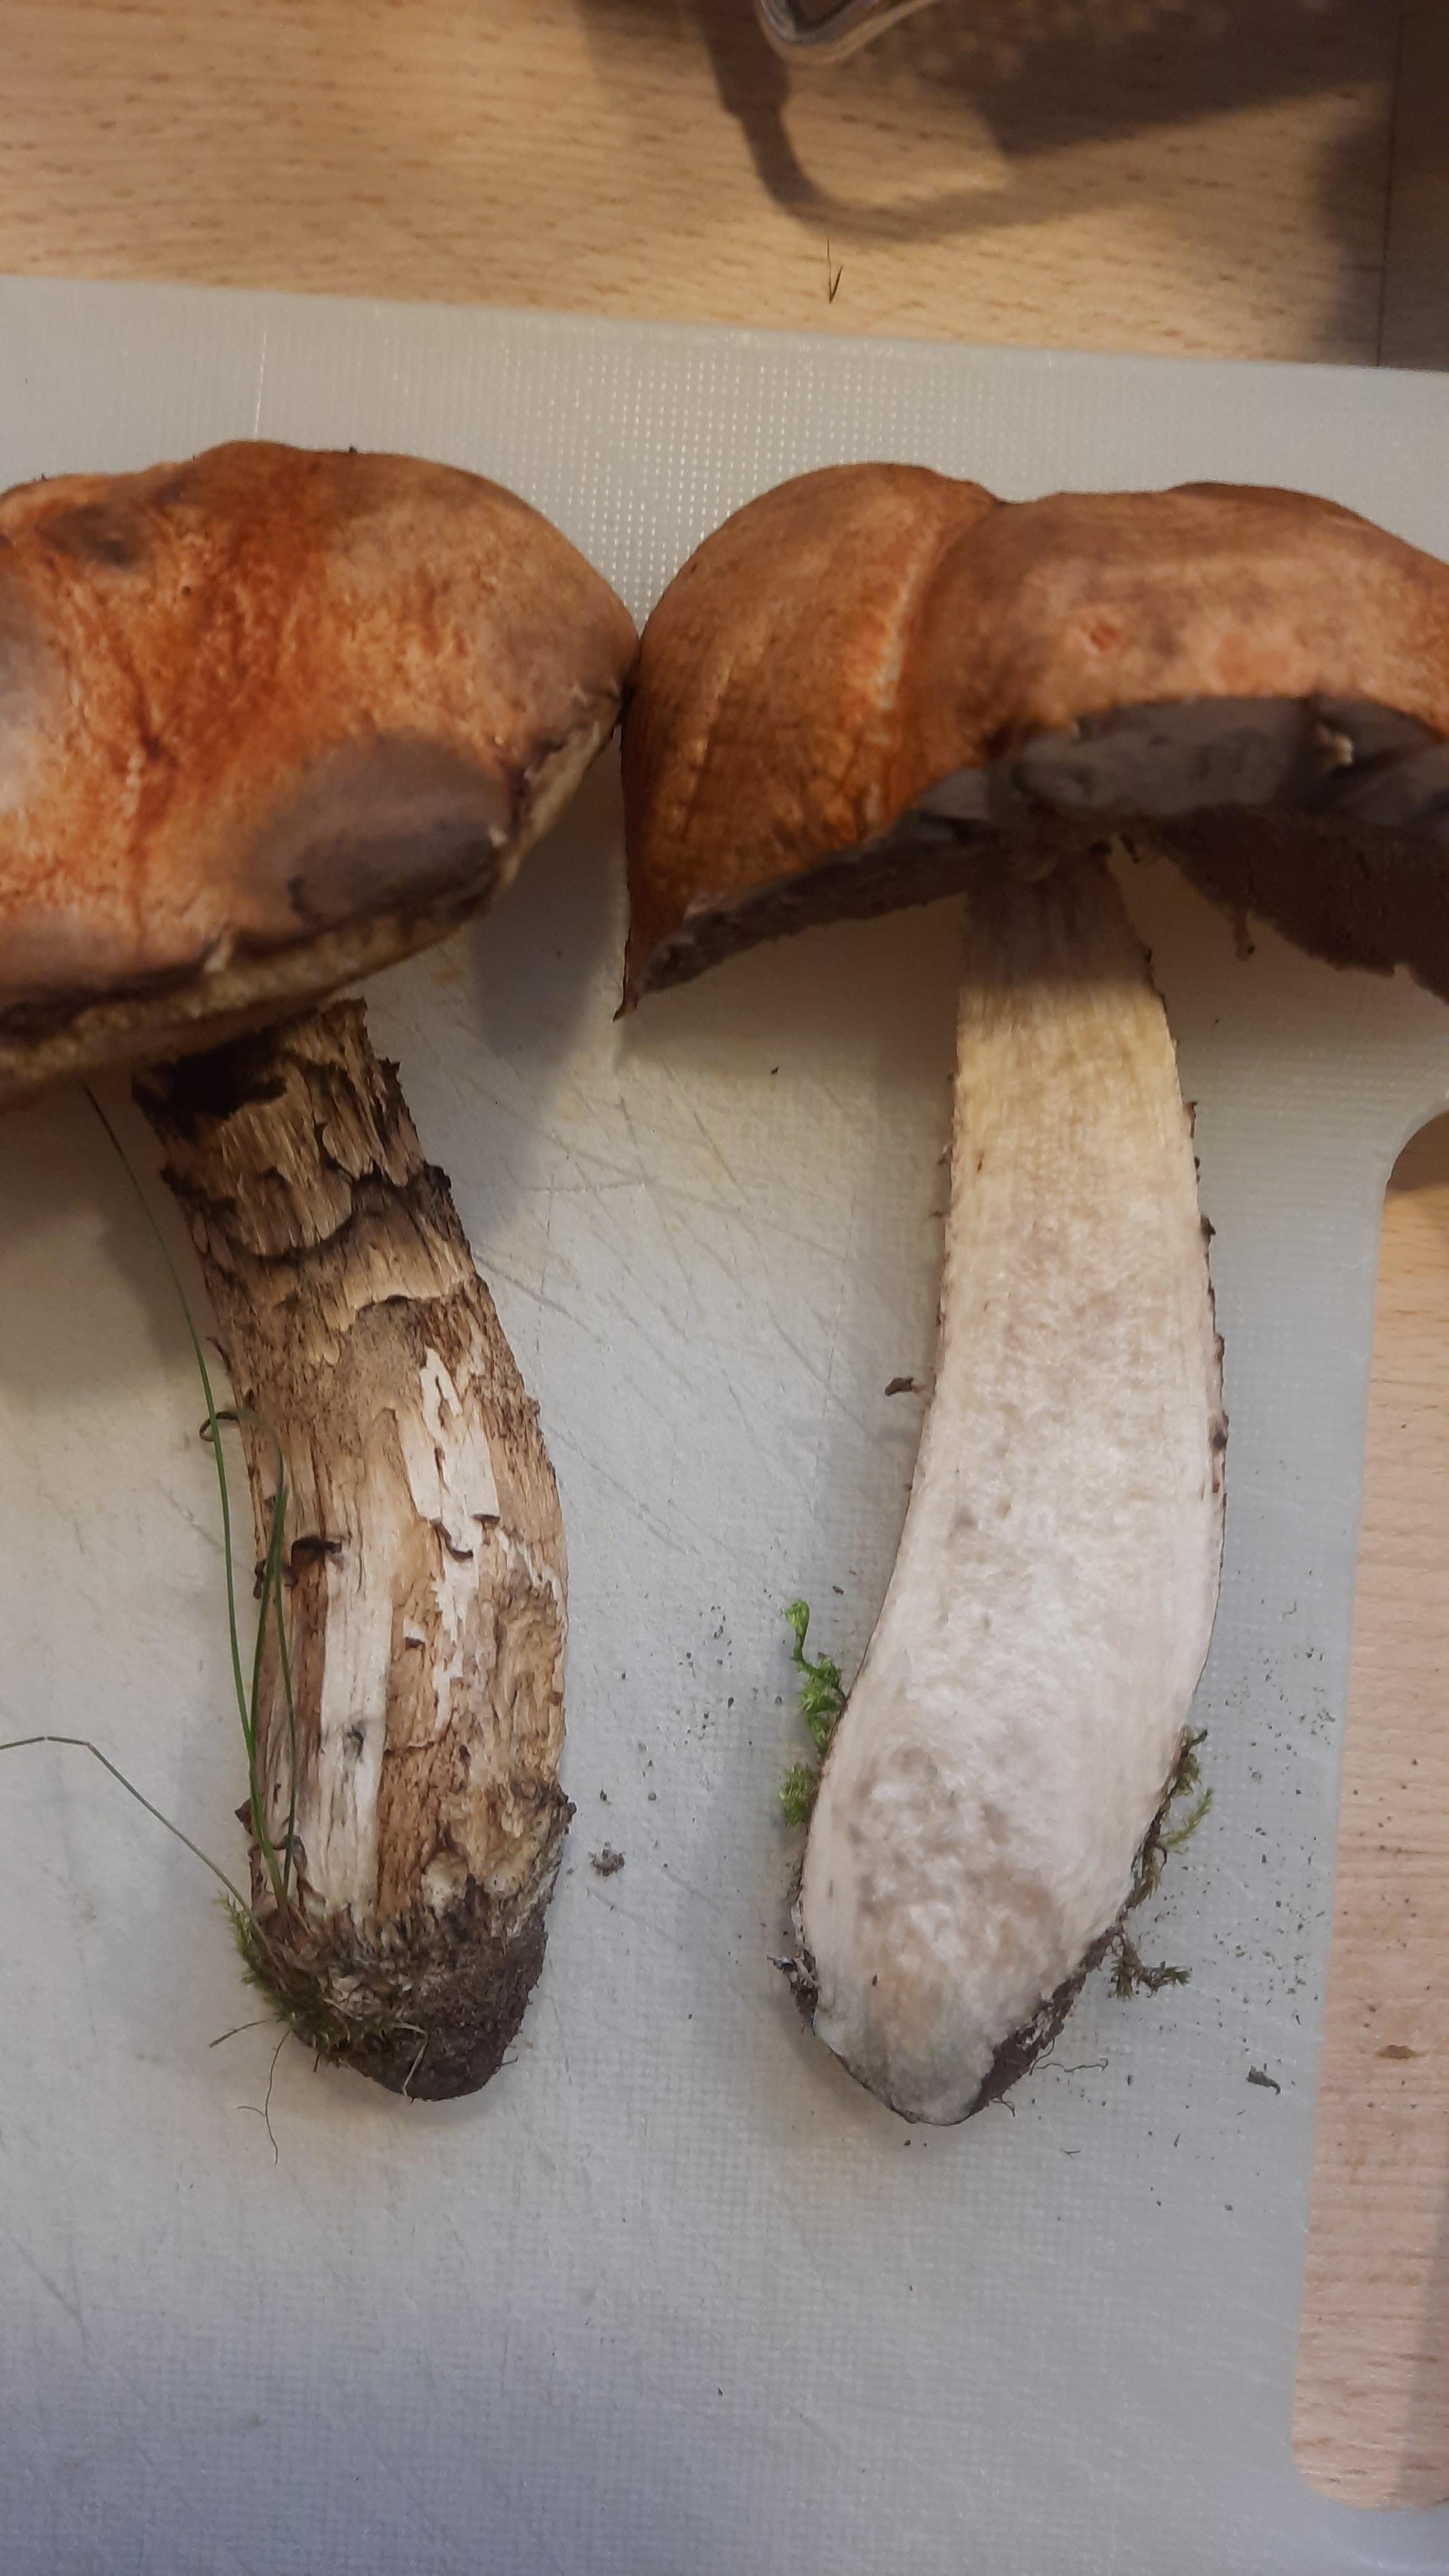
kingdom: Fungi
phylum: Basidiomycota
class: Agaricomycetes
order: Boletales
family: Boletaceae
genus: Leccinum
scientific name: Leccinum
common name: skælrørhat
